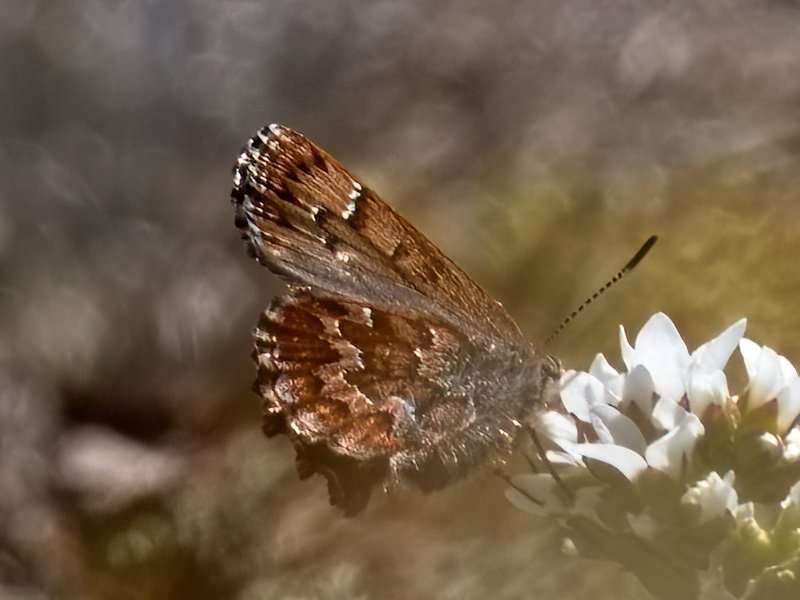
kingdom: Animalia
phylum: Arthropoda
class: Insecta
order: Lepidoptera
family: Lycaenidae
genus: Incisalia
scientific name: Incisalia niphon
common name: Eastern Pine Elfin
